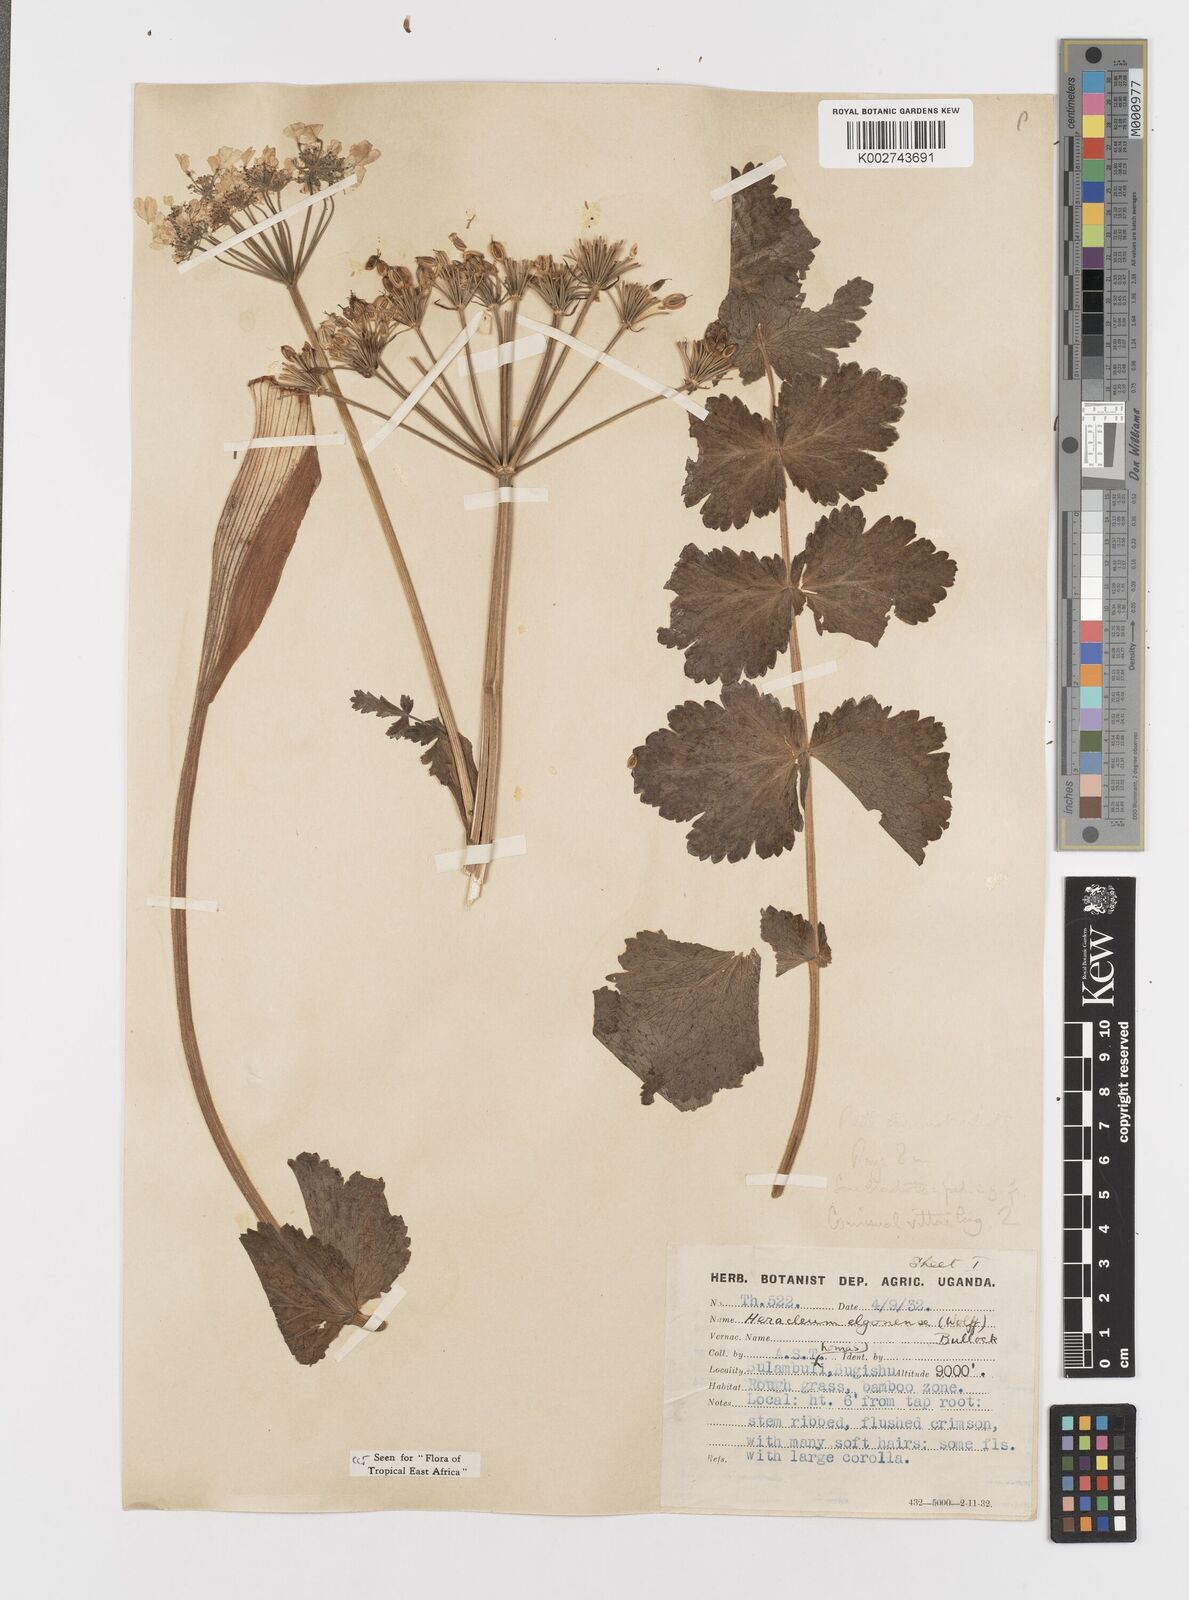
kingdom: Plantae
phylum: Tracheophyta
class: Magnoliopsida
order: Apiales
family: Apiaceae
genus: Heracleum
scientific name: Heracleum abyssinicum
